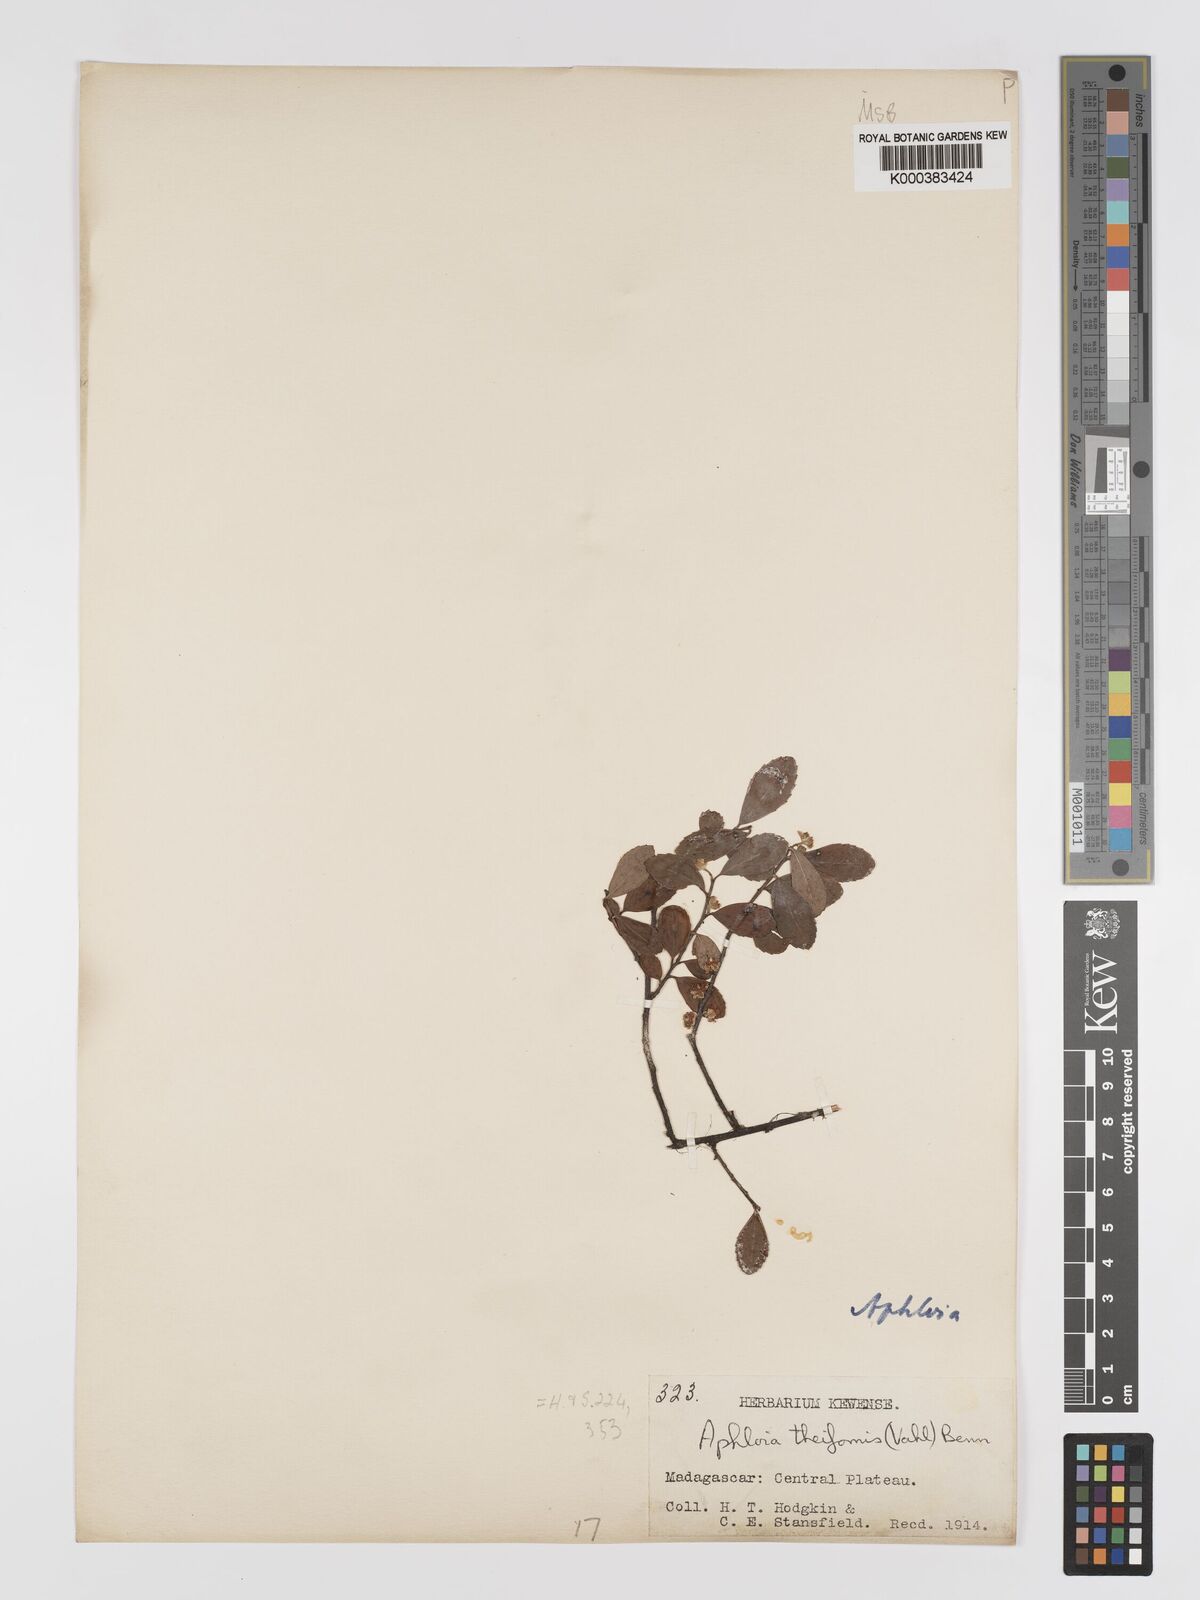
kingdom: Plantae
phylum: Tracheophyta
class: Magnoliopsida
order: Crossosomatales
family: Aphloiaceae
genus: Aphloia
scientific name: Aphloia theiformis
